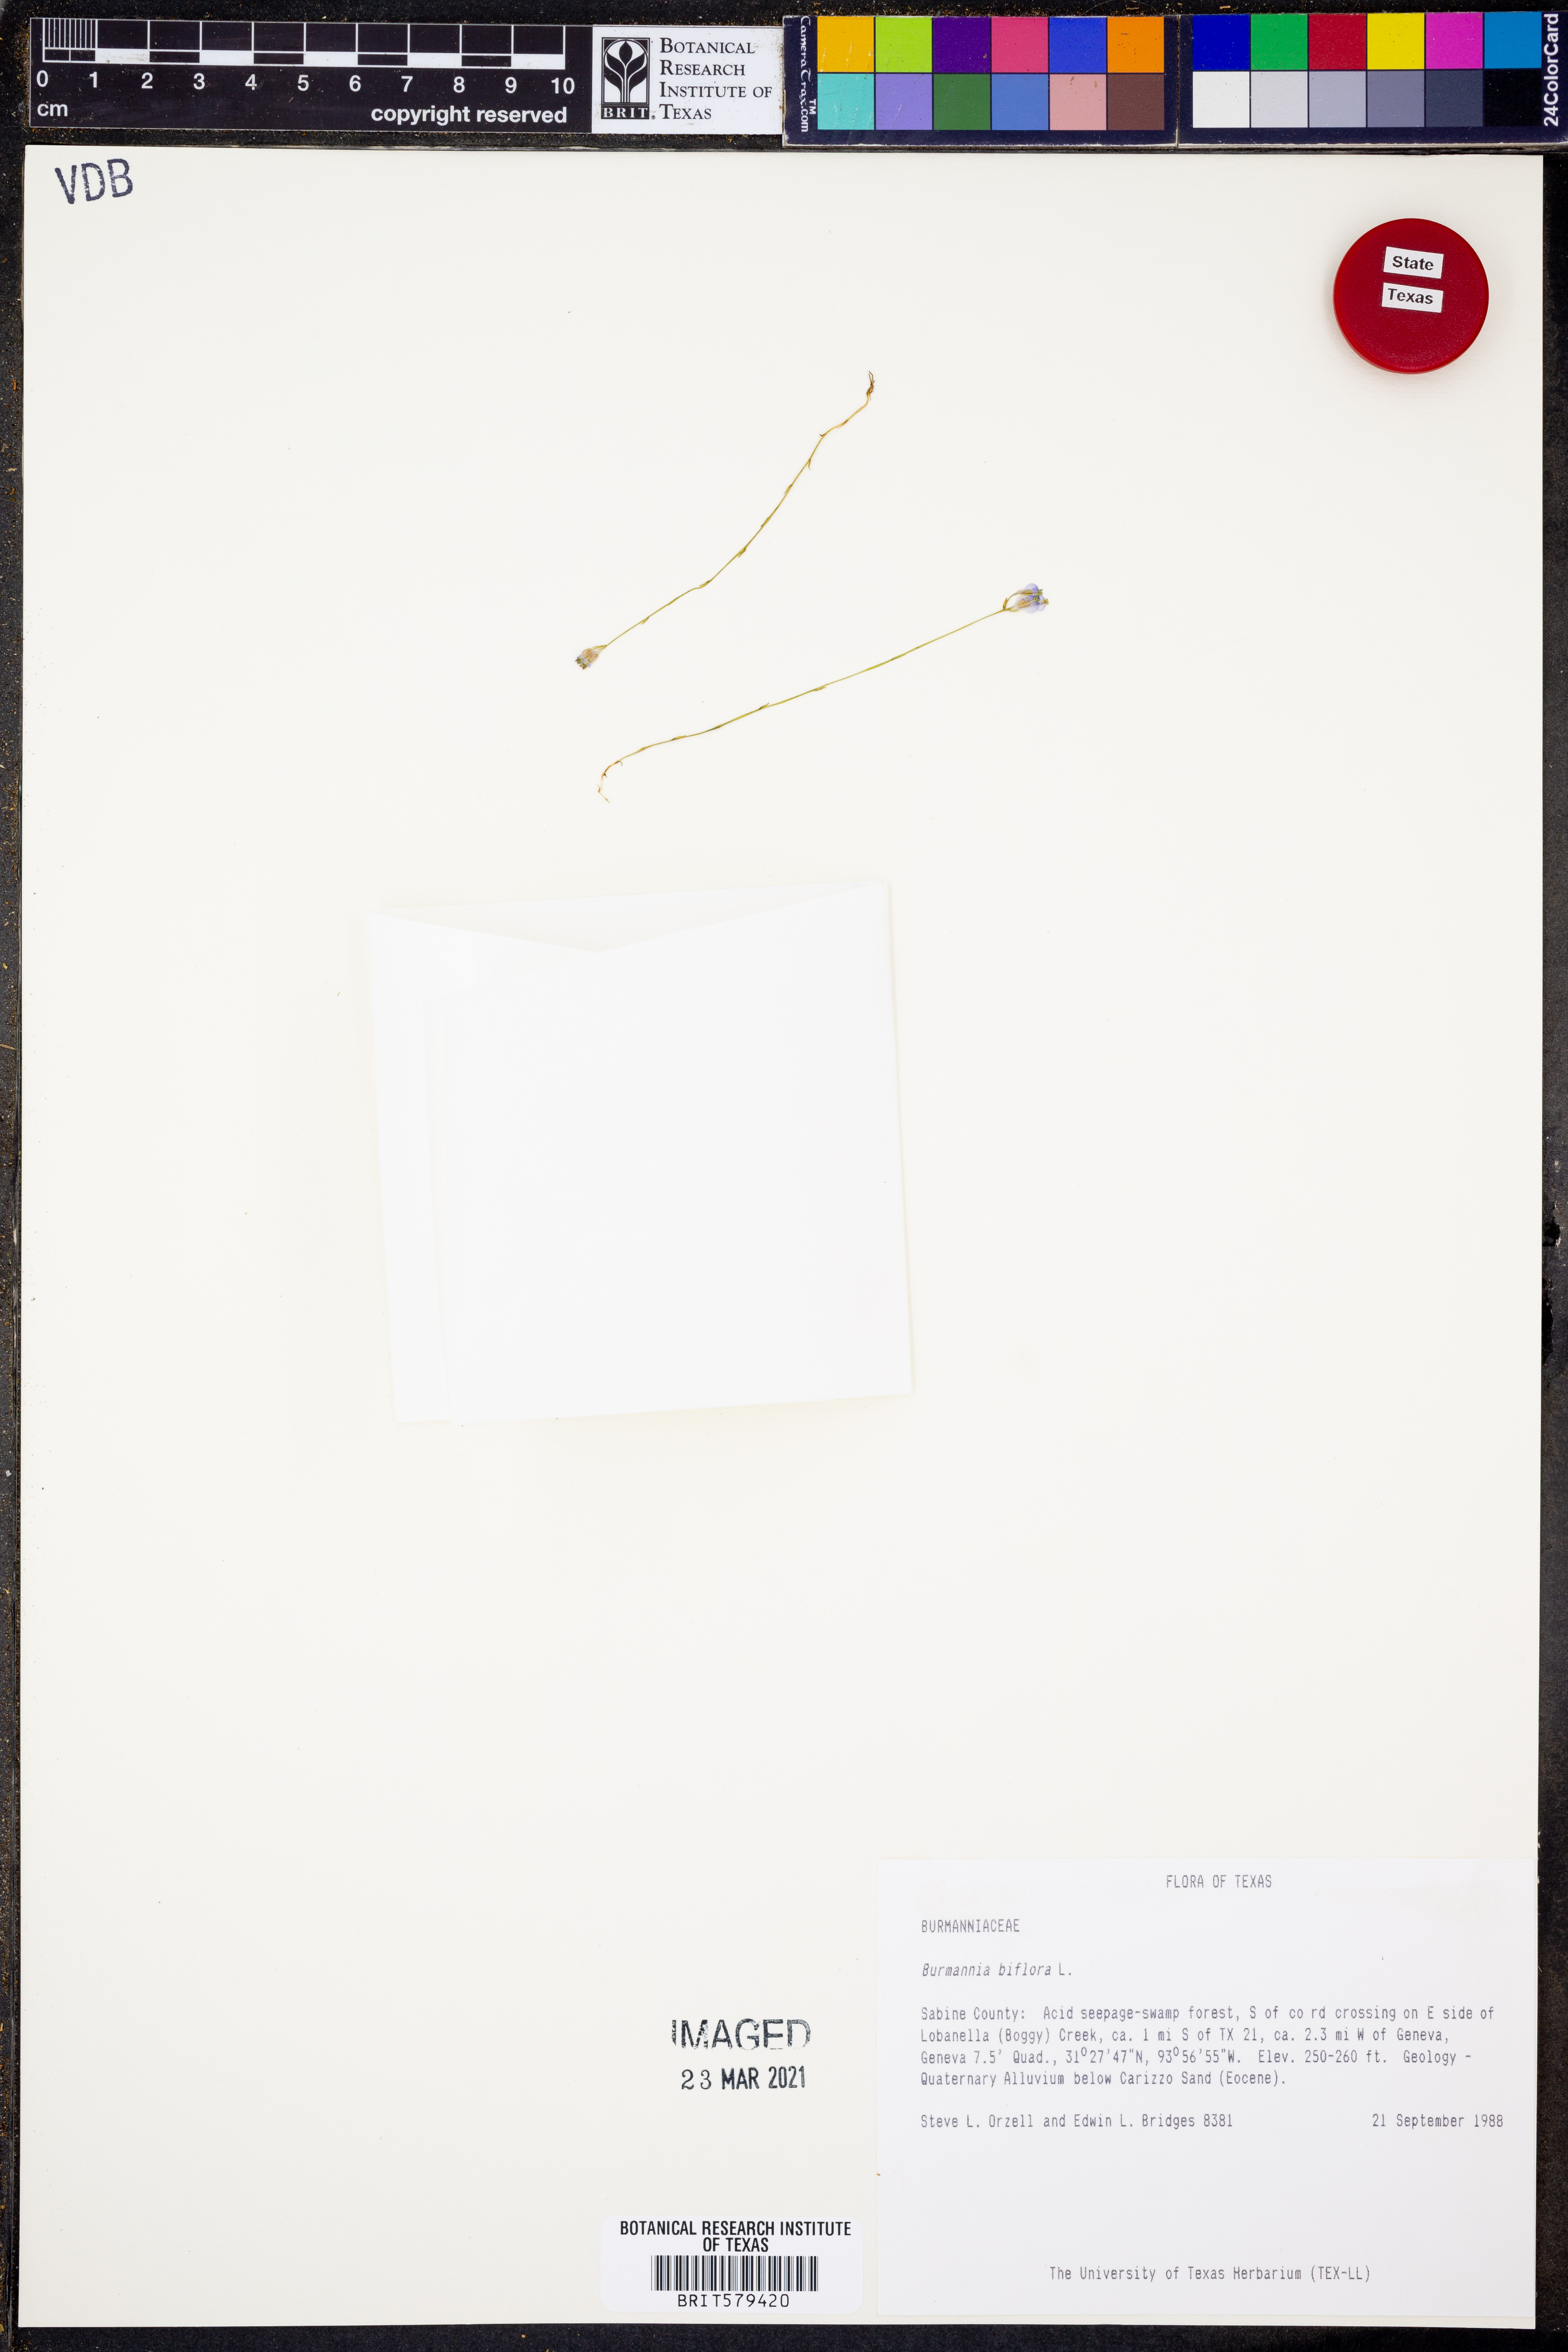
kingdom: Plantae
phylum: Tracheophyta
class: Liliopsida
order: Dioscoreales
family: Burmanniaceae
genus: Burmannia
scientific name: Burmannia biflora
